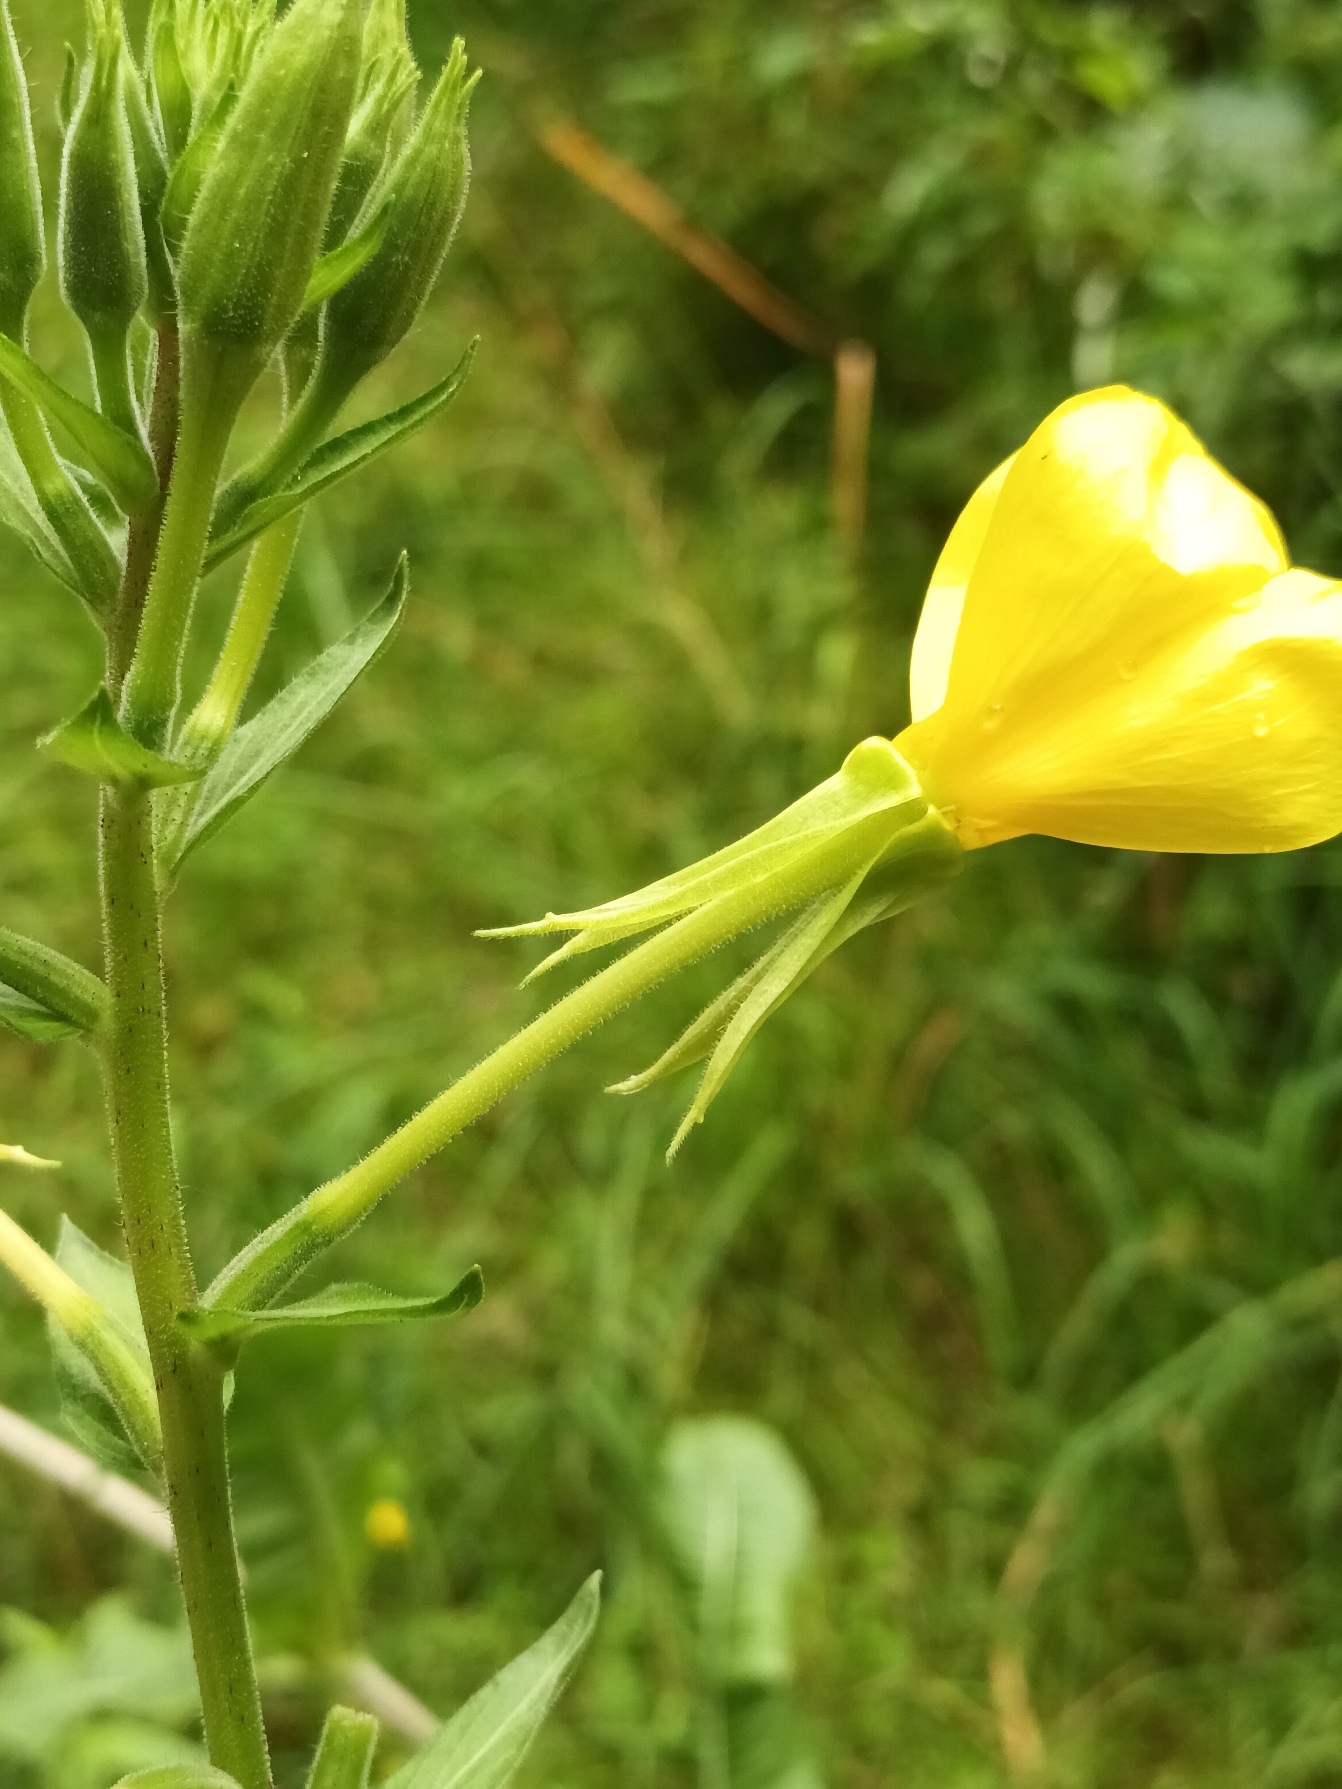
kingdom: Plantae
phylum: Tracheophyta
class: Magnoliopsida
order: Myrtales
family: Onagraceae
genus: Oenothera
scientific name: Oenothera biennis
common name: Toårig natlys
